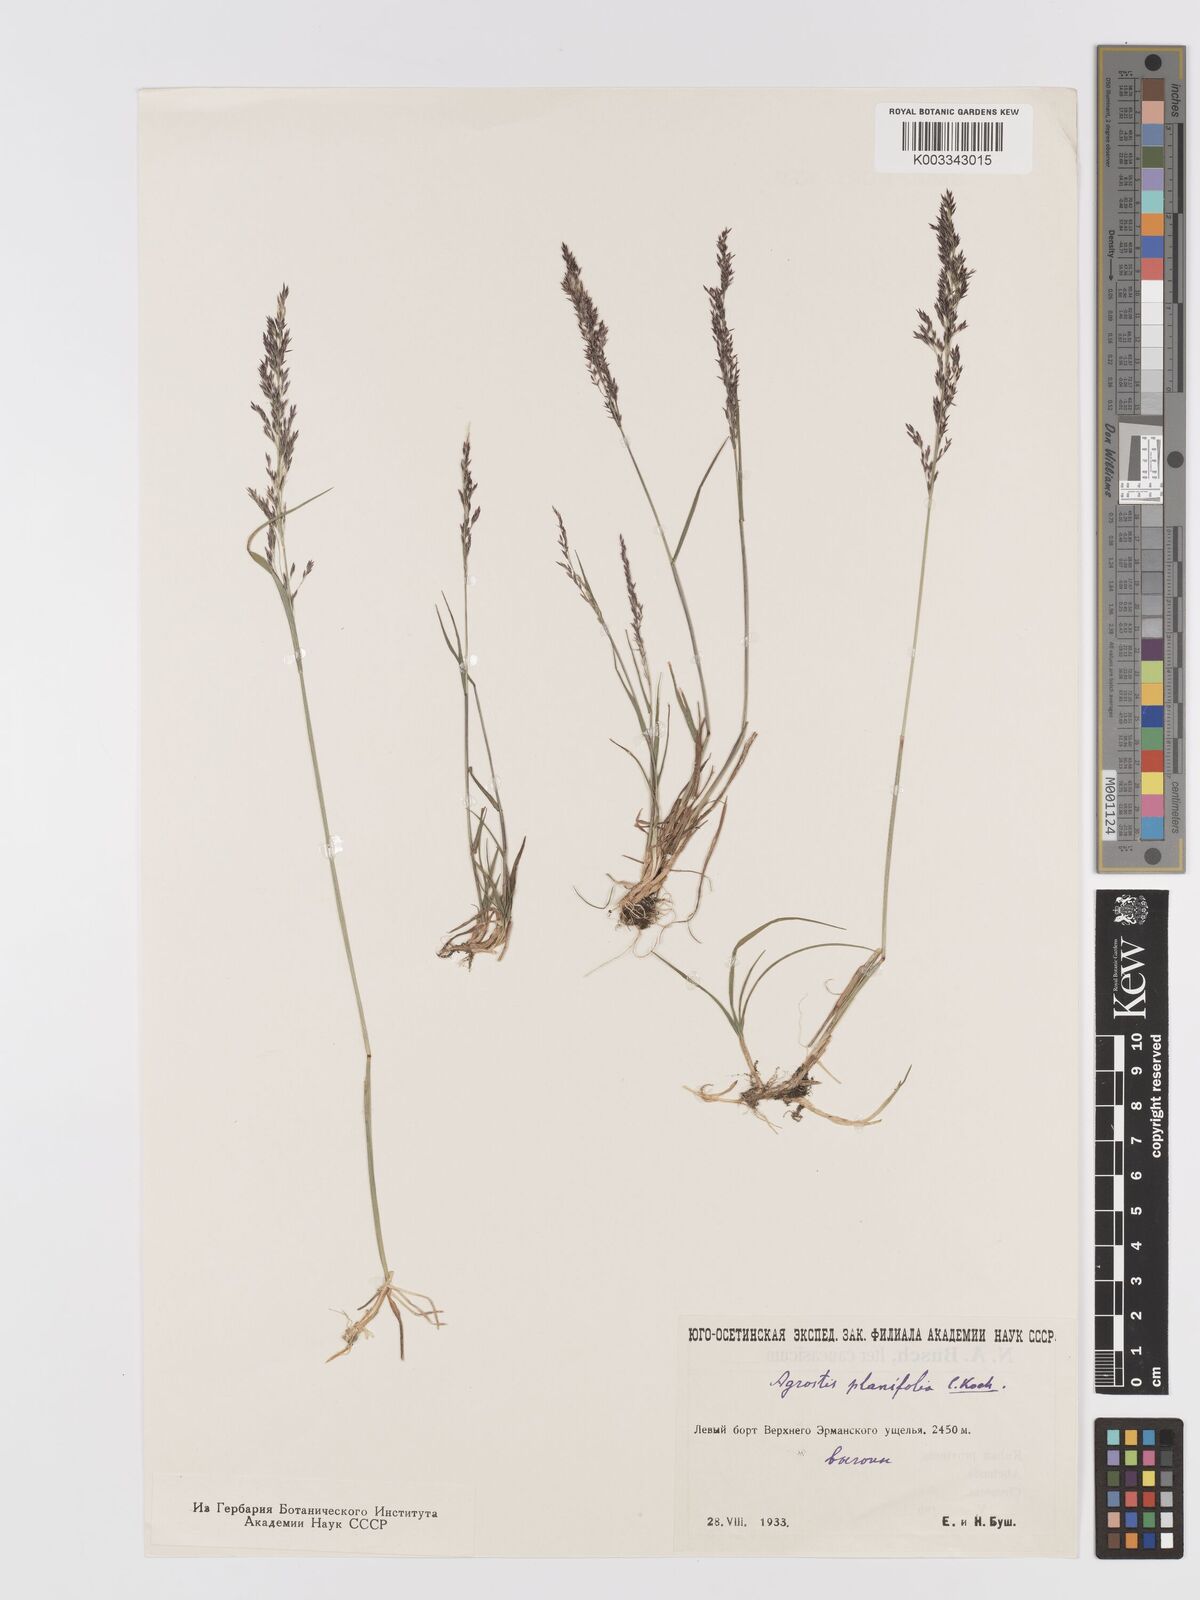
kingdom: Plantae
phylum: Tracheophyta
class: Liliopsida
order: Poales
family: Poaceae
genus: Agrostis
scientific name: Agrostis vinealis
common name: Brown bent
